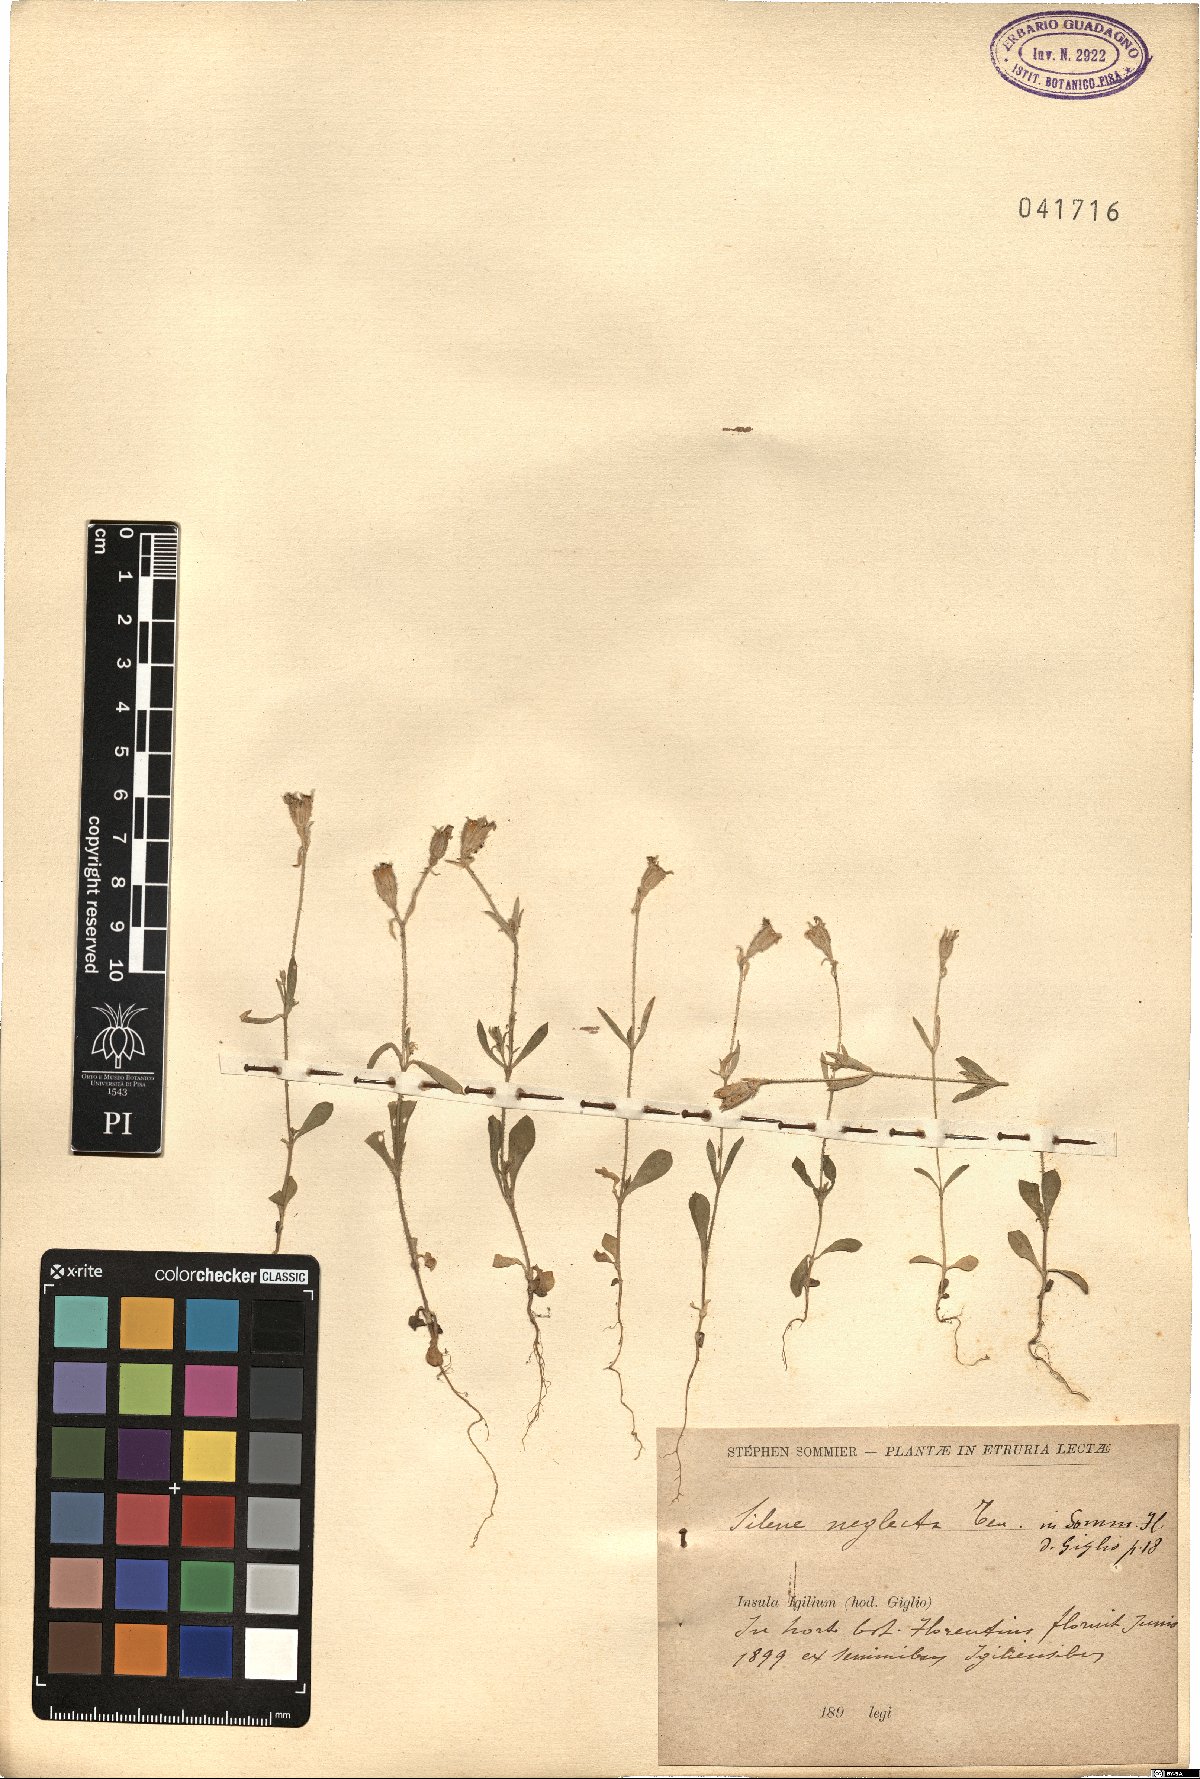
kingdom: Plantae
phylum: Tracheophyta
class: Magnoliopsida
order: Caryophyllales
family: Caryophyllaceae
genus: Silene
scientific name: Silene neglecta
